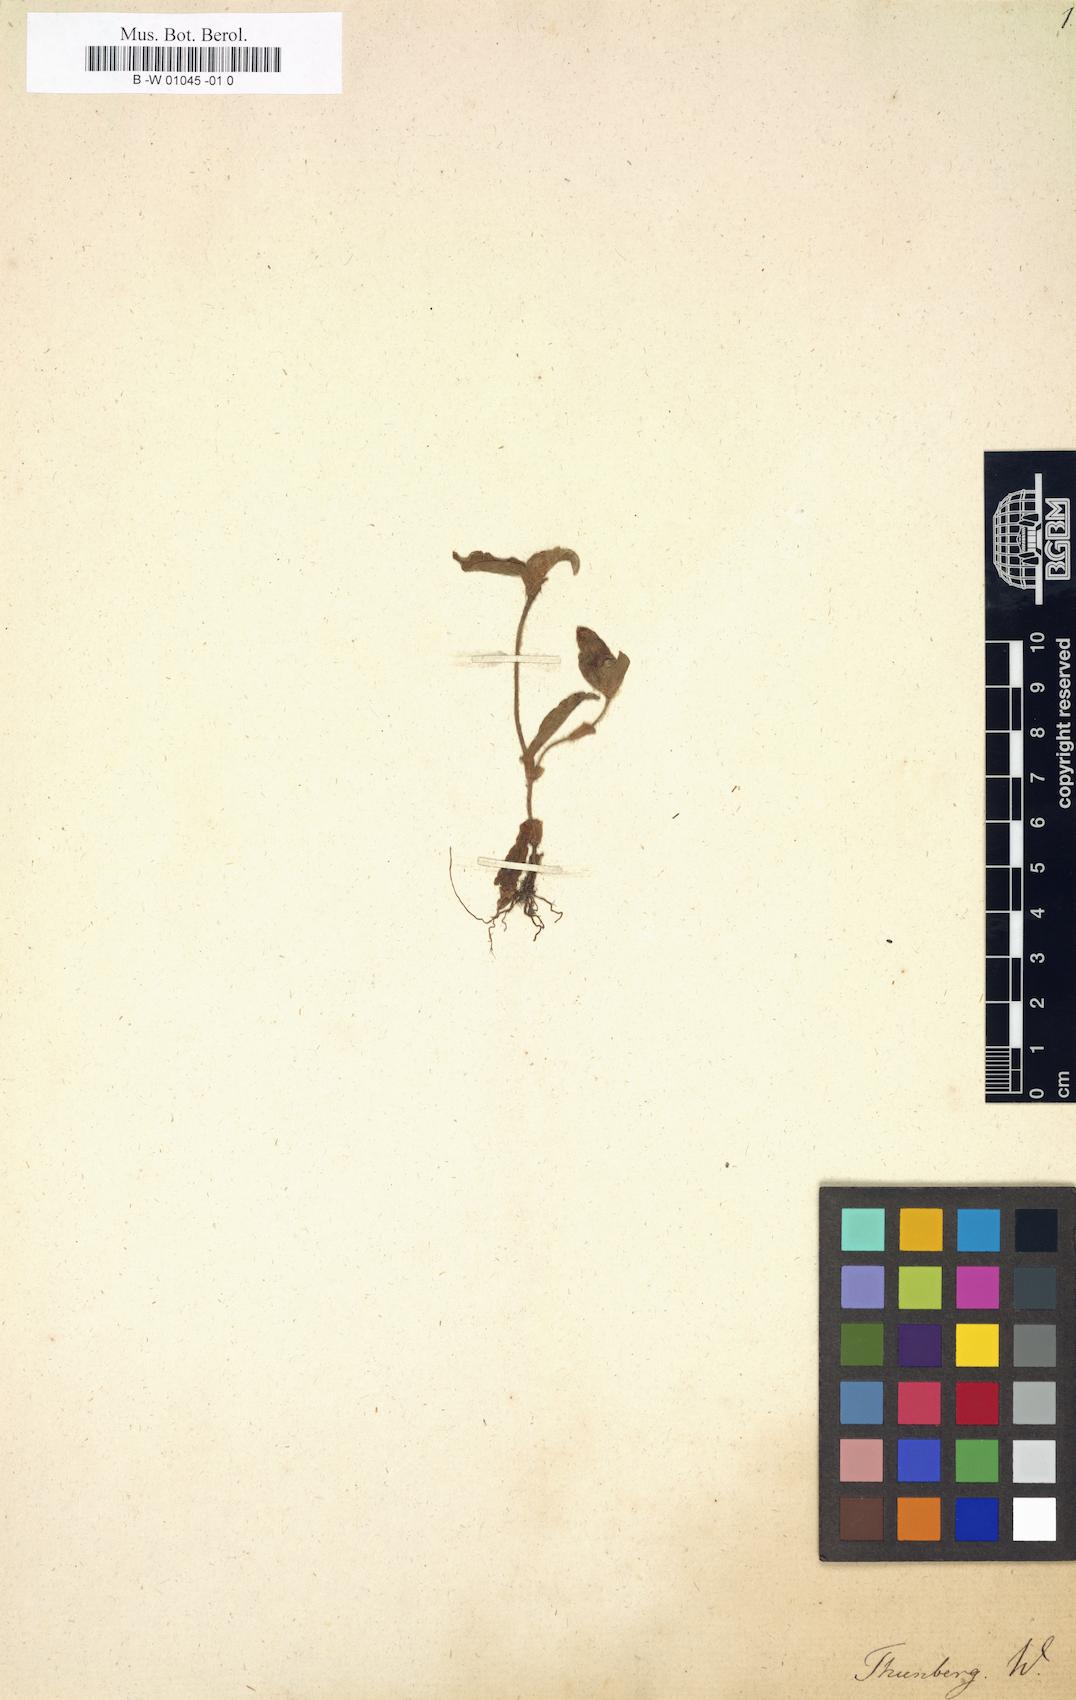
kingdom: Plantae
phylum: Tracheophyta
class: Liliopsida
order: Commelinales
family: Commelinaceae
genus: Commelina
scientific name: Commelina
